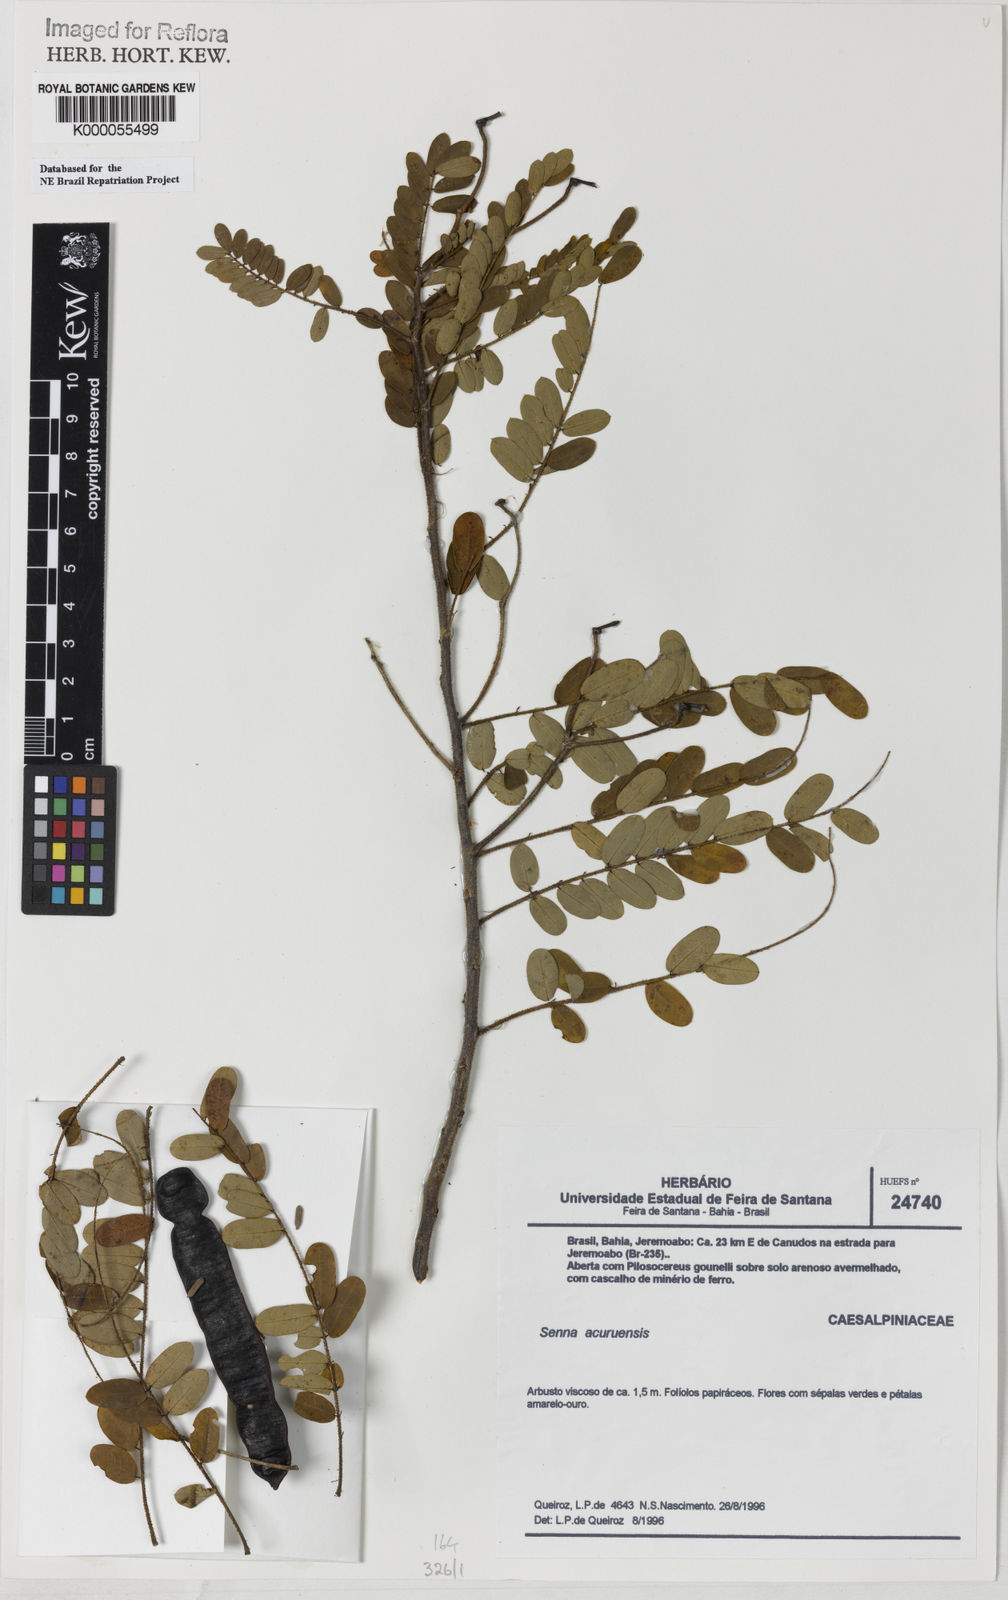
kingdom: Plantae
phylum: Tracheophyta
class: Magnoliopsida
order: Fabales
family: Fabaceae
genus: Senna
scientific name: Senna acuruensis
